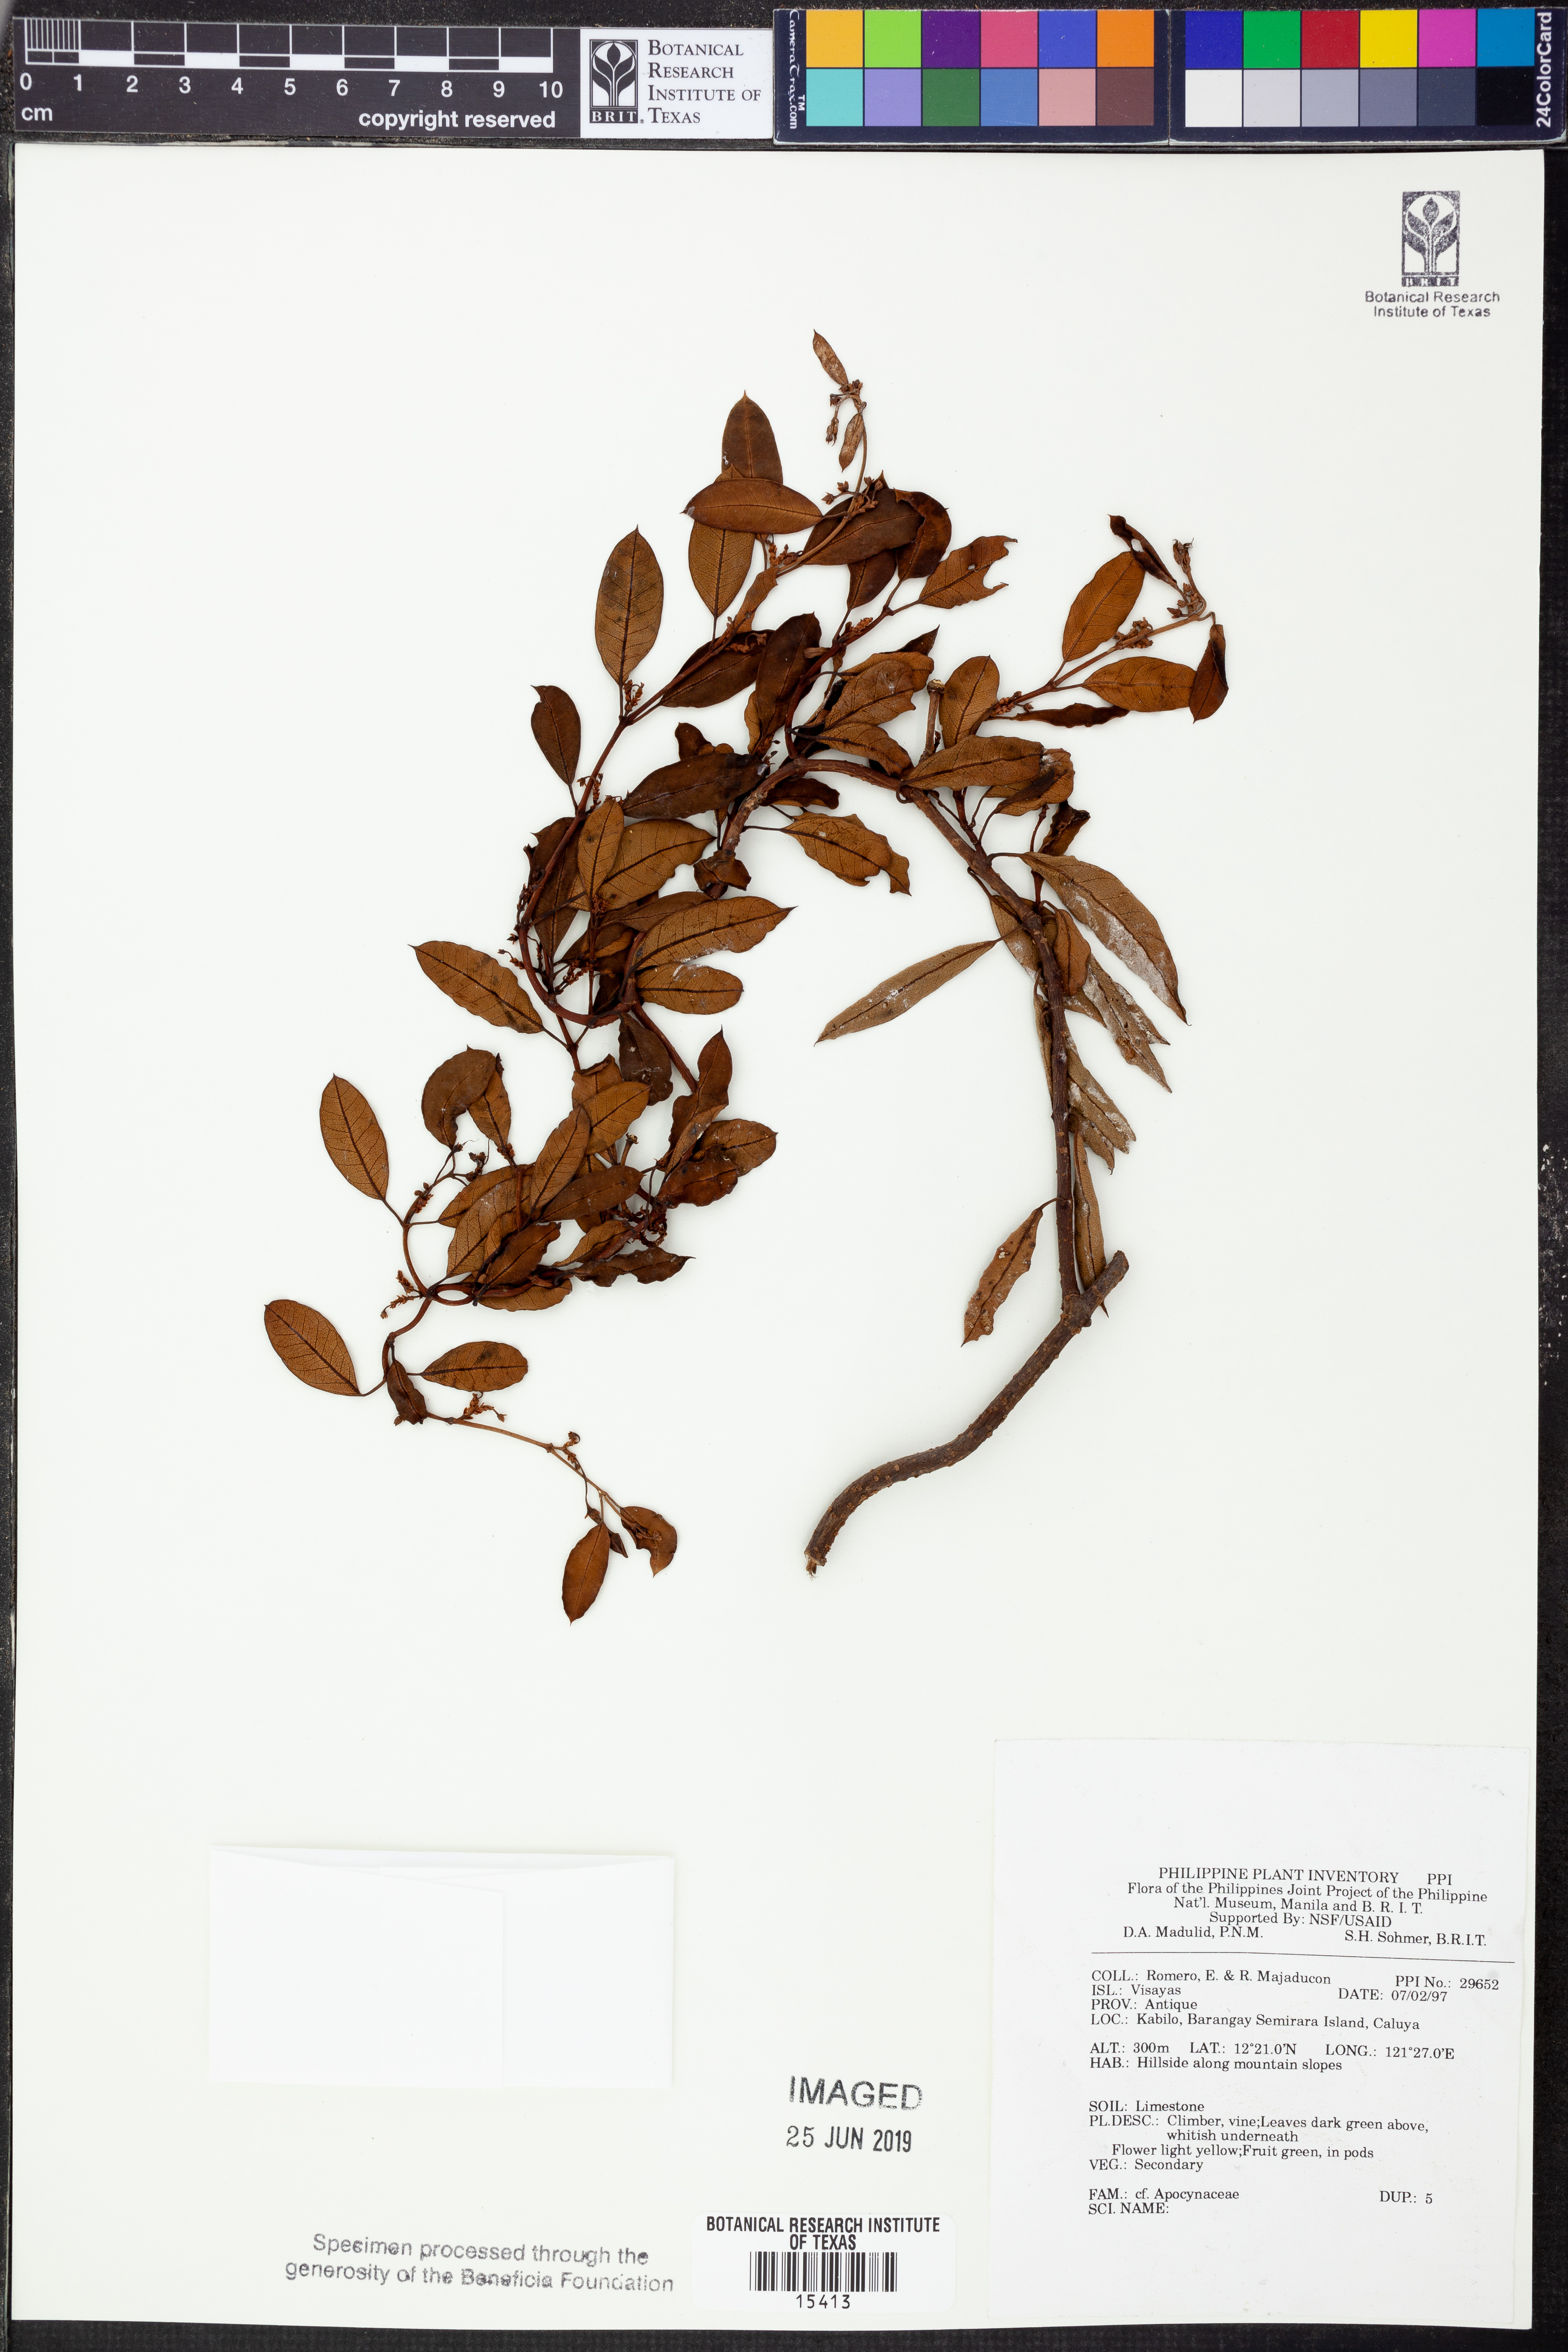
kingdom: Plantae
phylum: Tracheophyta
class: Magnoliopsida
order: Gentianales
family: Apocynaceae
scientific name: Apocynaceae
